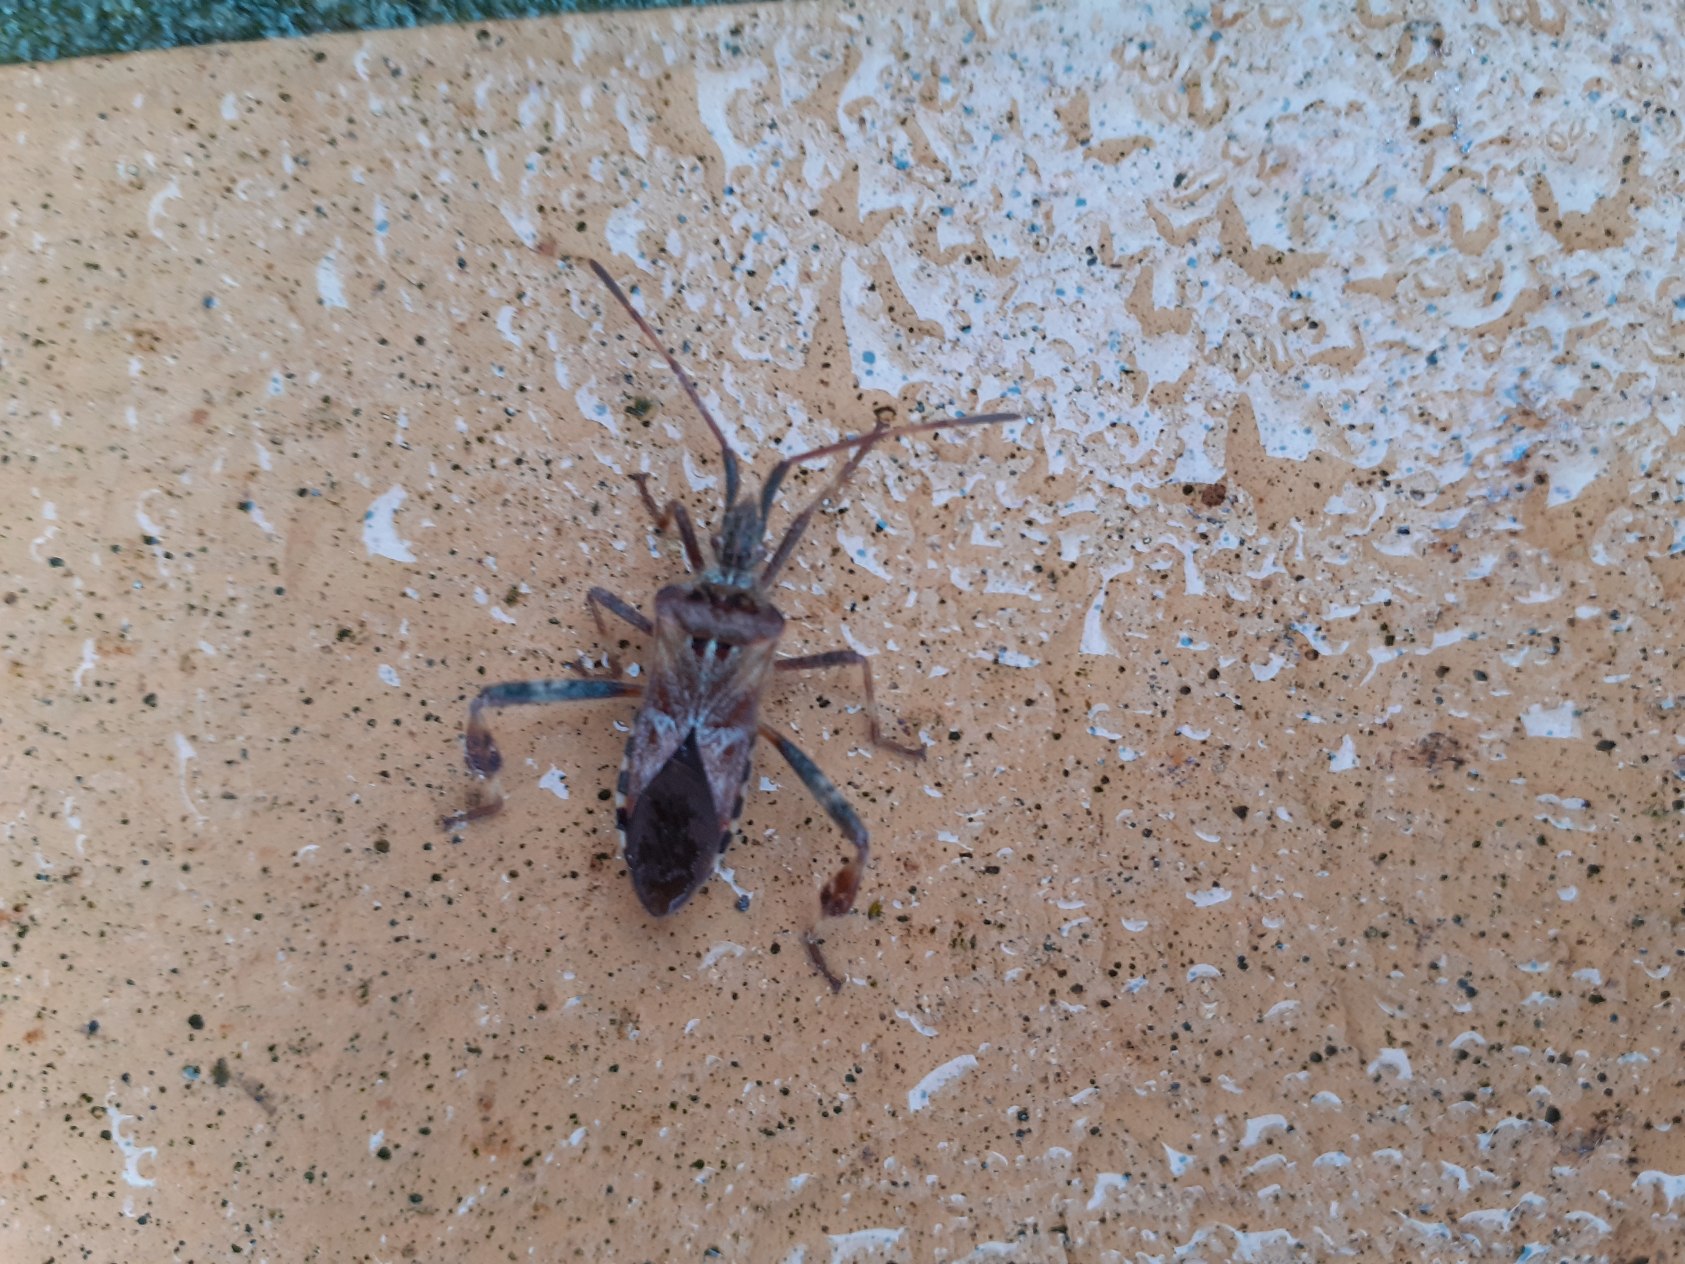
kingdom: Animalia
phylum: Arthropoda
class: Insecta
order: Hemiptera
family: Coreidae
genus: Leptoglossus
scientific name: Leptoglossus occidentalis
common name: Amerikansk fyrretæge
